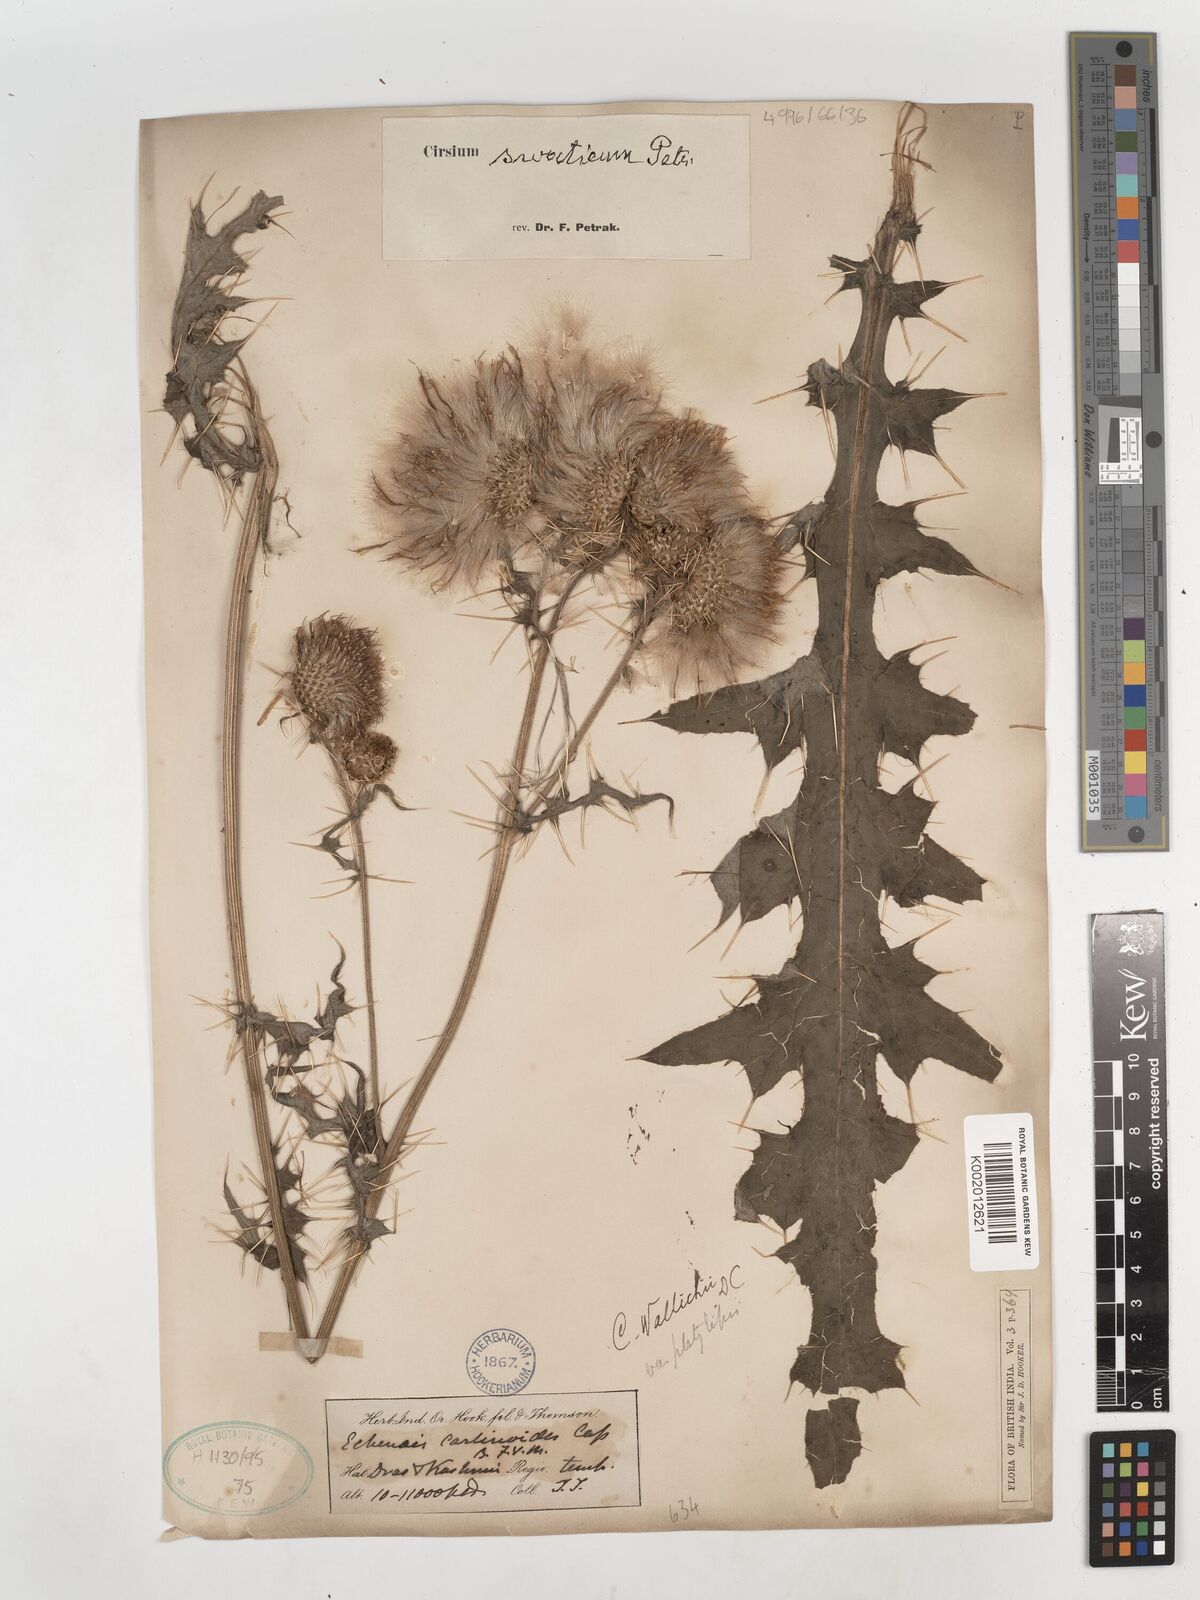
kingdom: Plantae
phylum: Tracheophyta
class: Magnoliopsida
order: Asterales
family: Asteraceae
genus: Cirsium
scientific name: Cirsium
